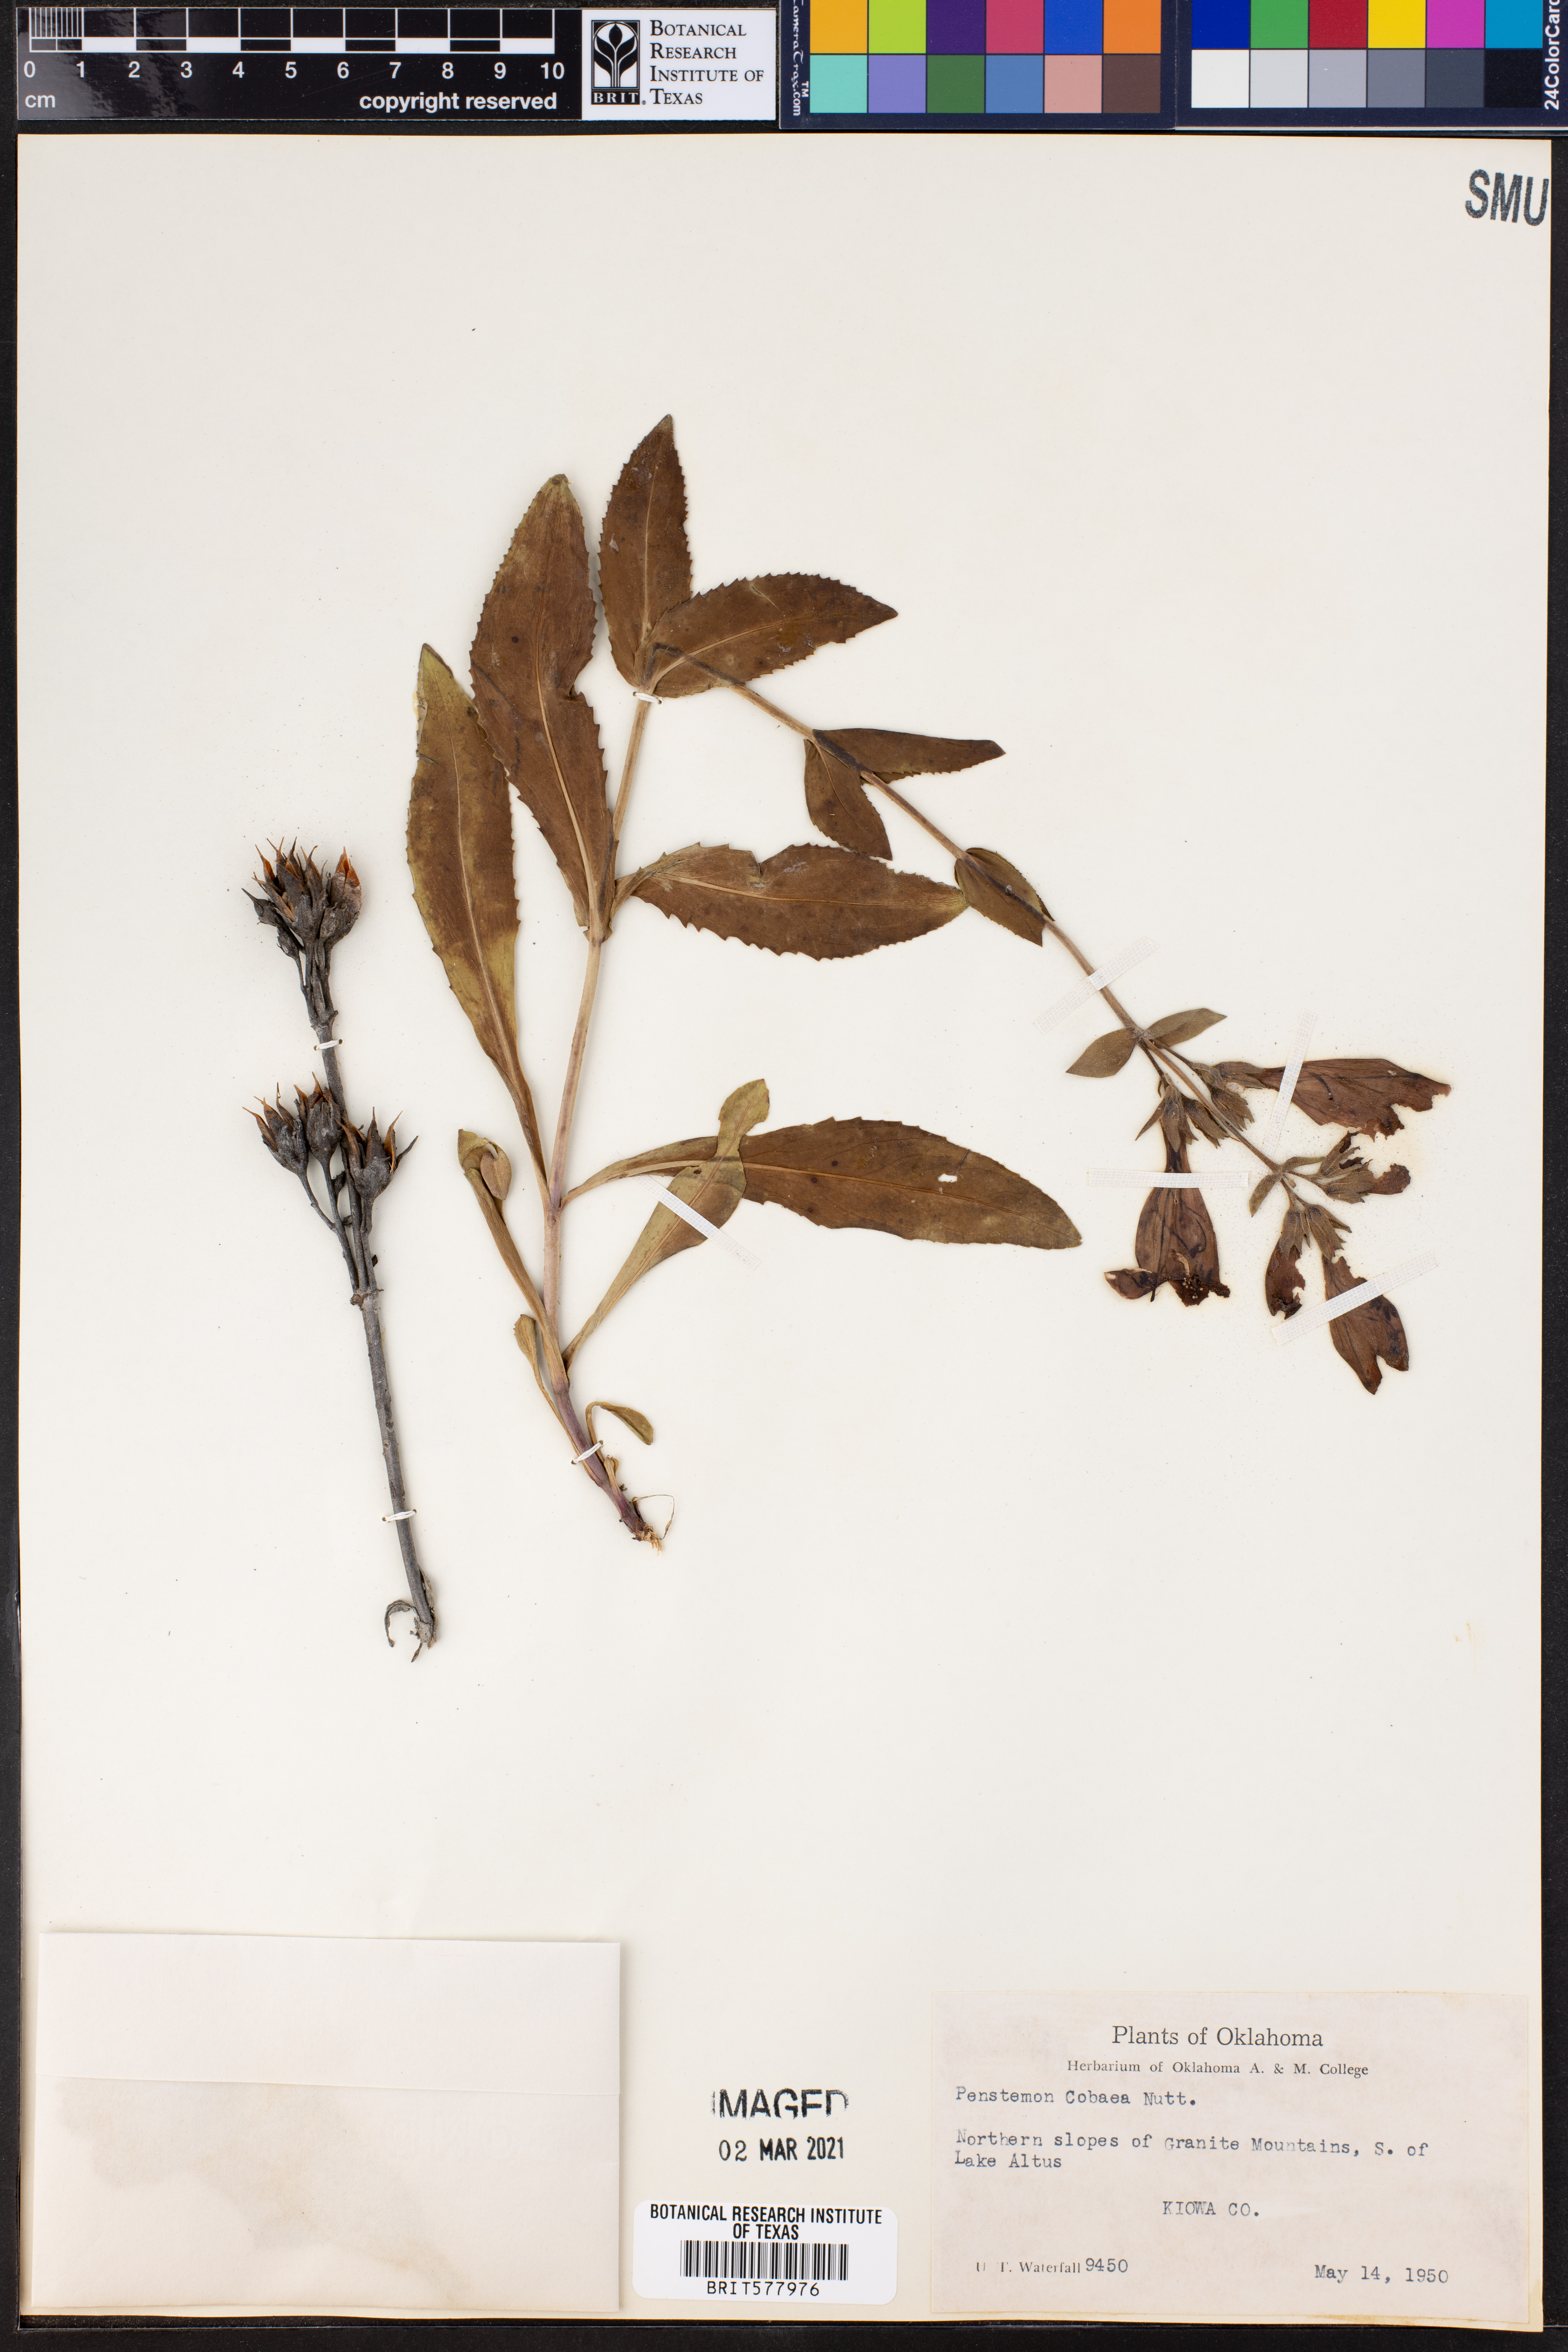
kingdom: Plantae
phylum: Tracheophyta
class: Magnoliopsida
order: Lamiales
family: Plantaginaceae
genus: Penstemon
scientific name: Penstemon cobaea
